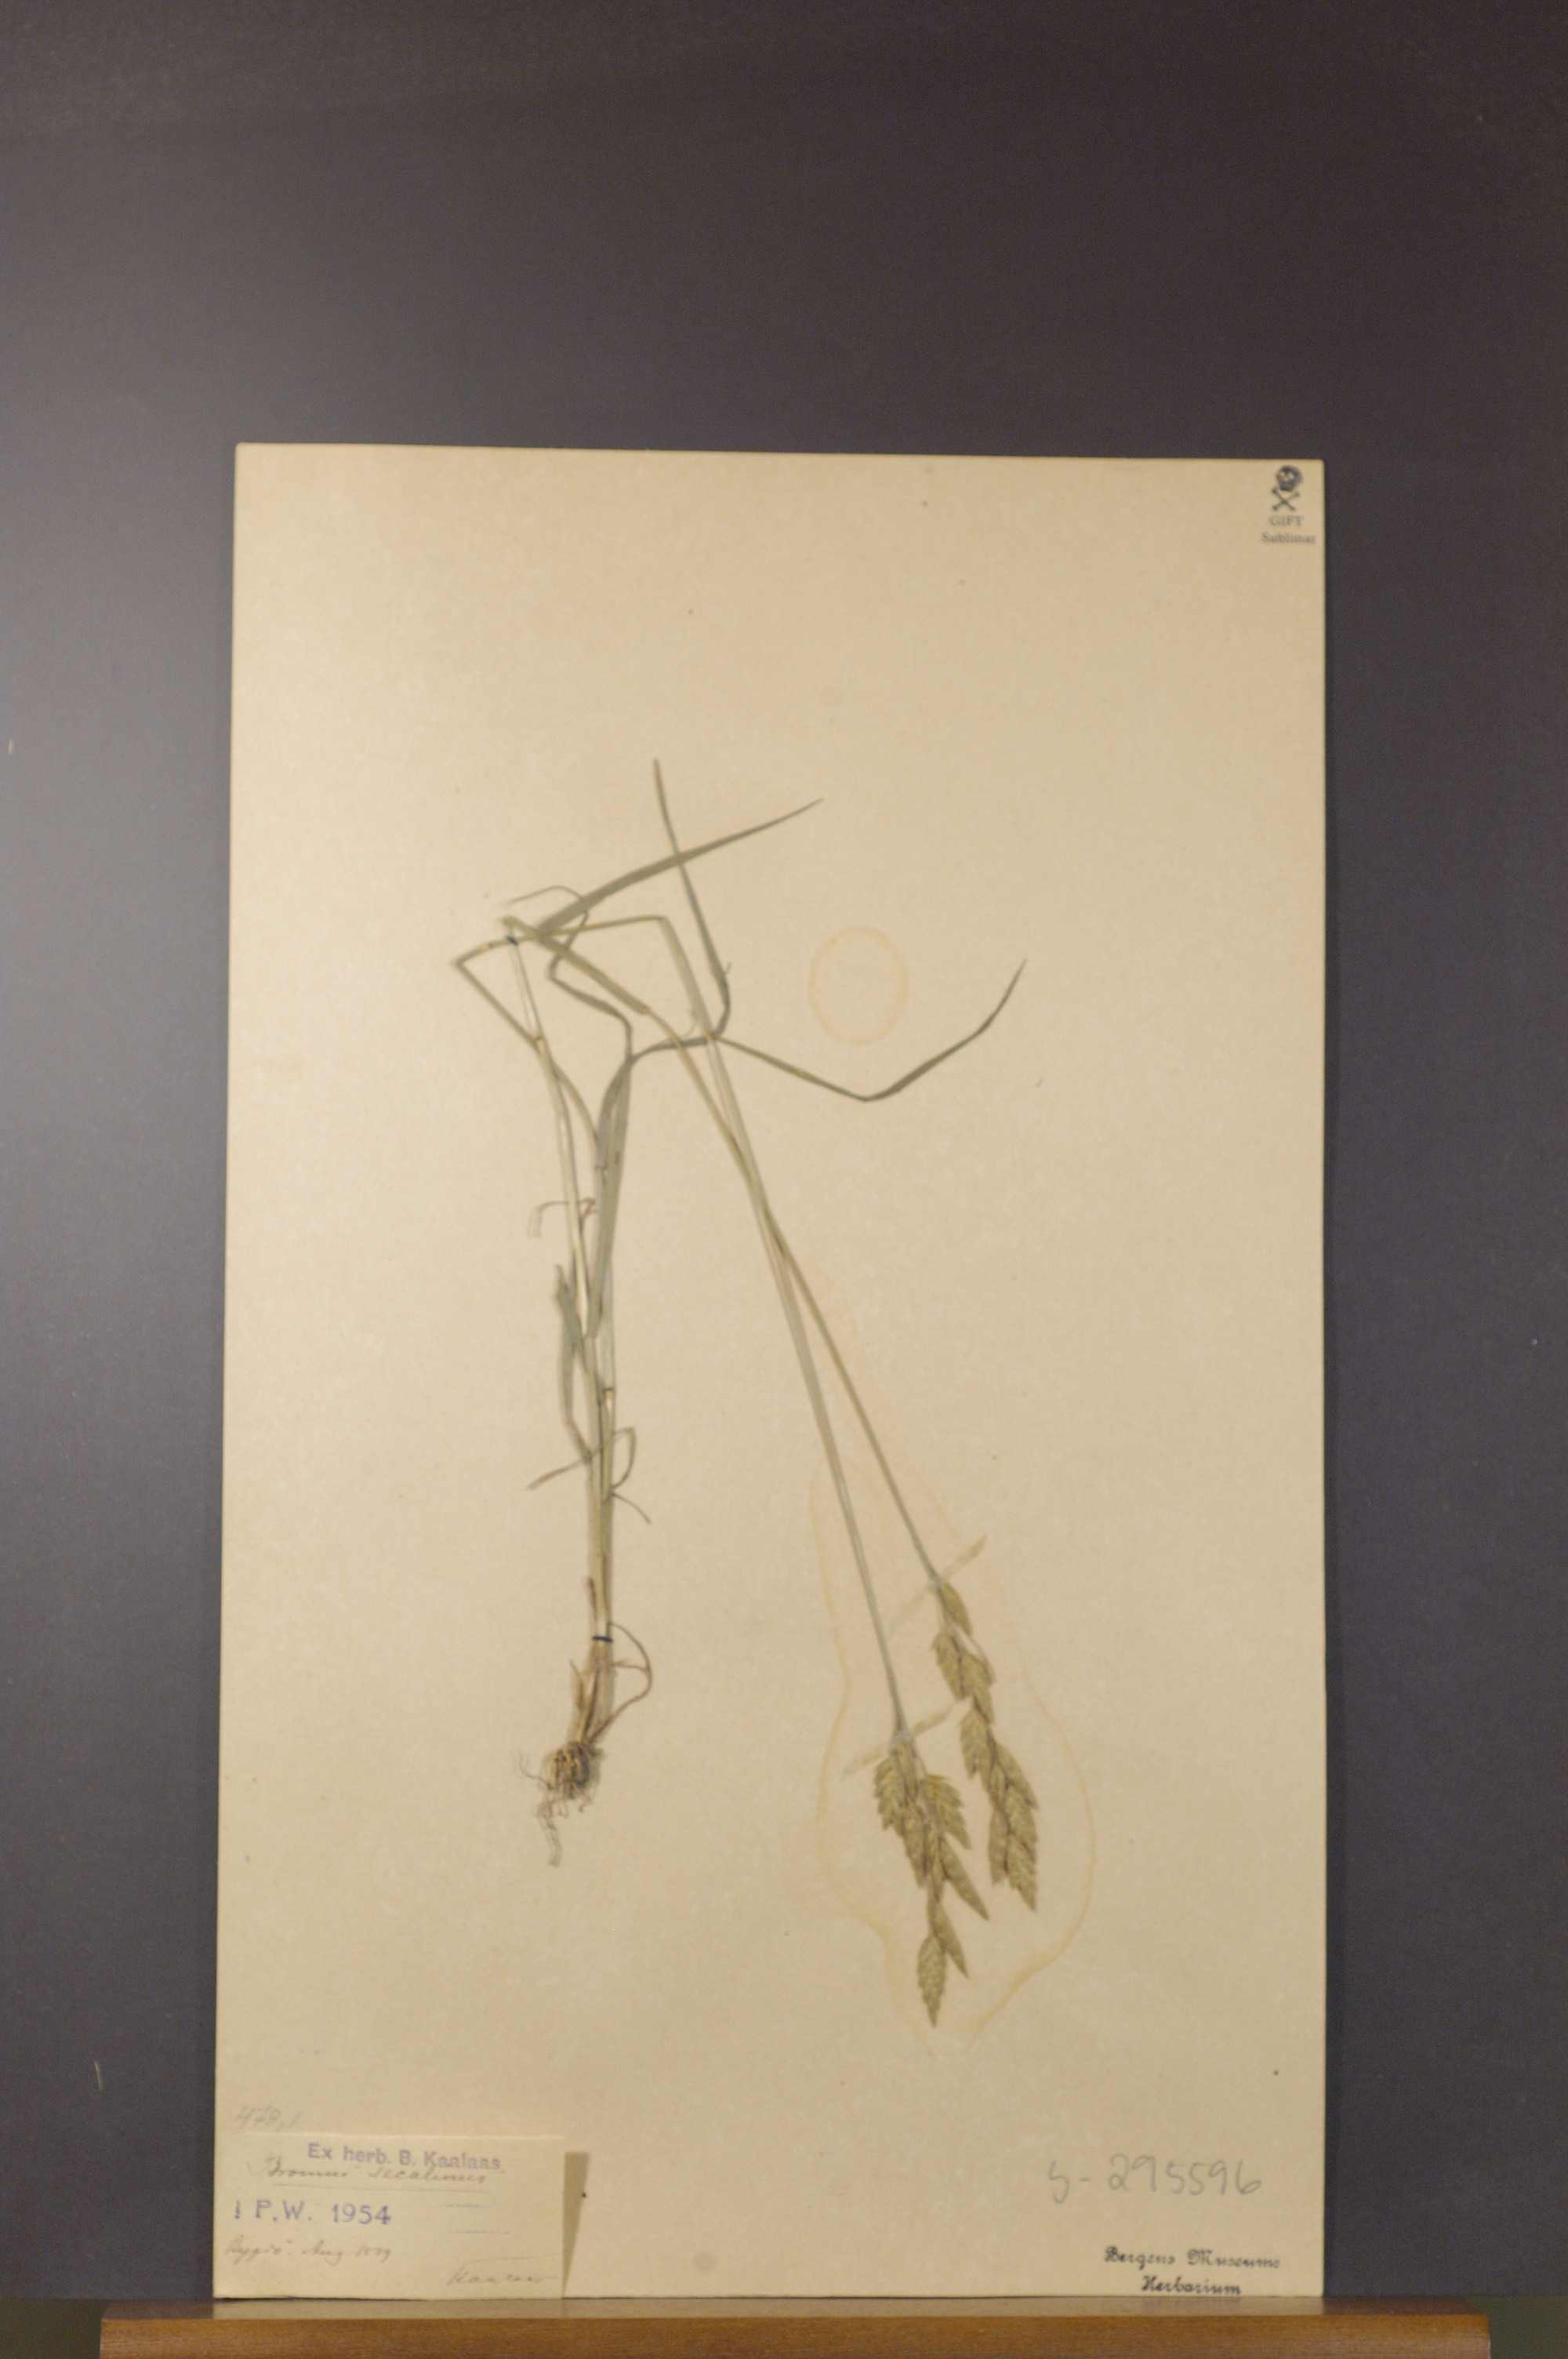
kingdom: Plantae
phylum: Tracheophyta
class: Liliopsida
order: Poales
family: Poaceae
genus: Bromus
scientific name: Bromus secalinus
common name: Rye brome
